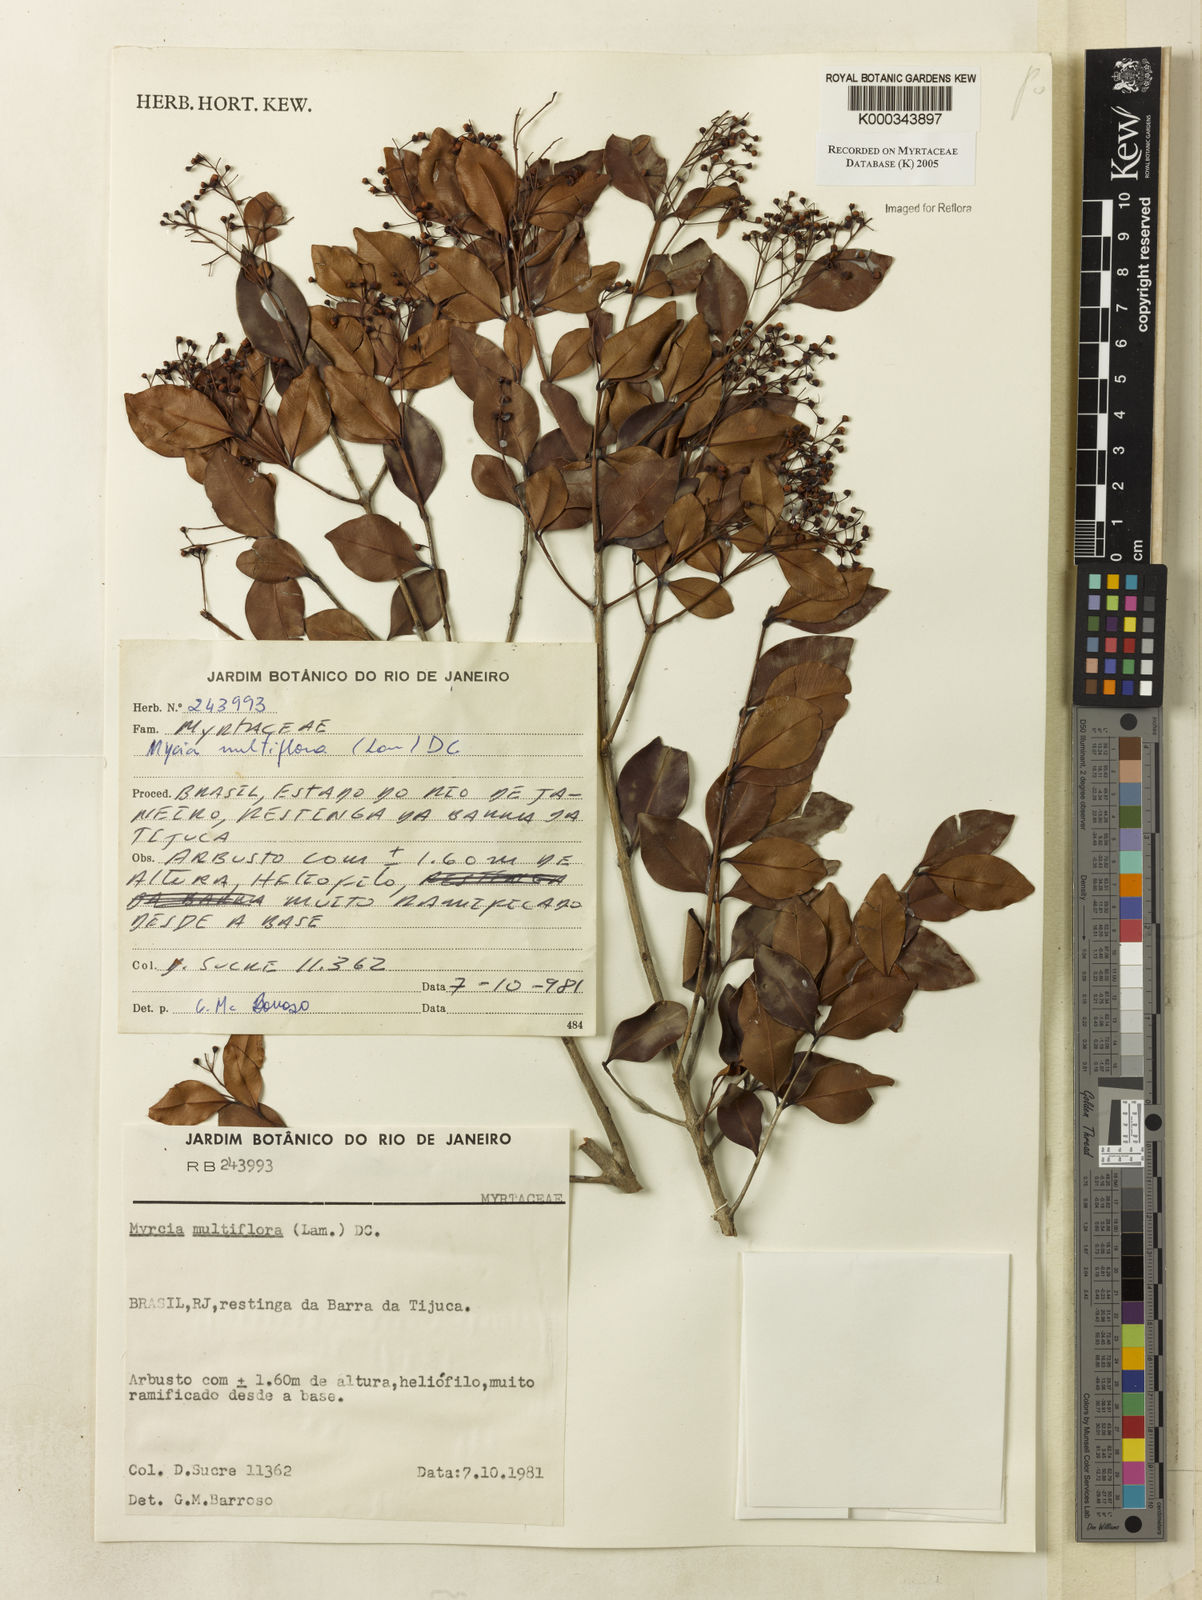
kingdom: Plantae
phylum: Tracheophyta
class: Magnoliopsida
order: Myrtales
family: Myrtaceae
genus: Myrcia
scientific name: Myrcia multiflora
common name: Pedra hume
